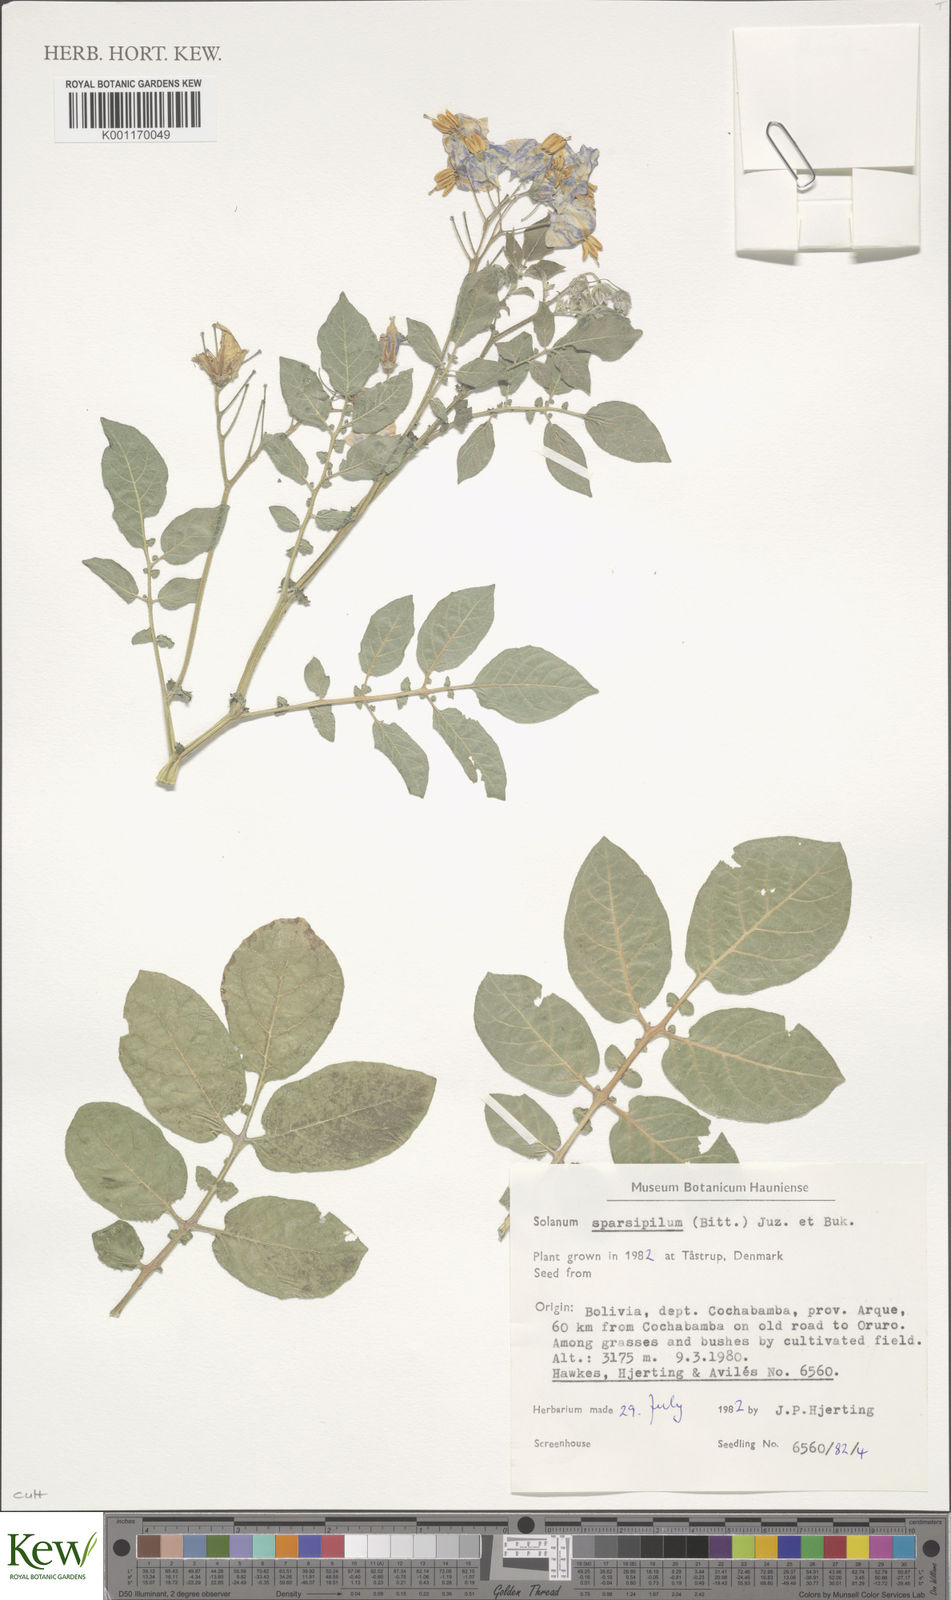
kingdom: Plantae
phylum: Tracheophyta
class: Magnoliopsida
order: Solanales
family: Solanaceae
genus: Solanum
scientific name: Solanum brevicaule
